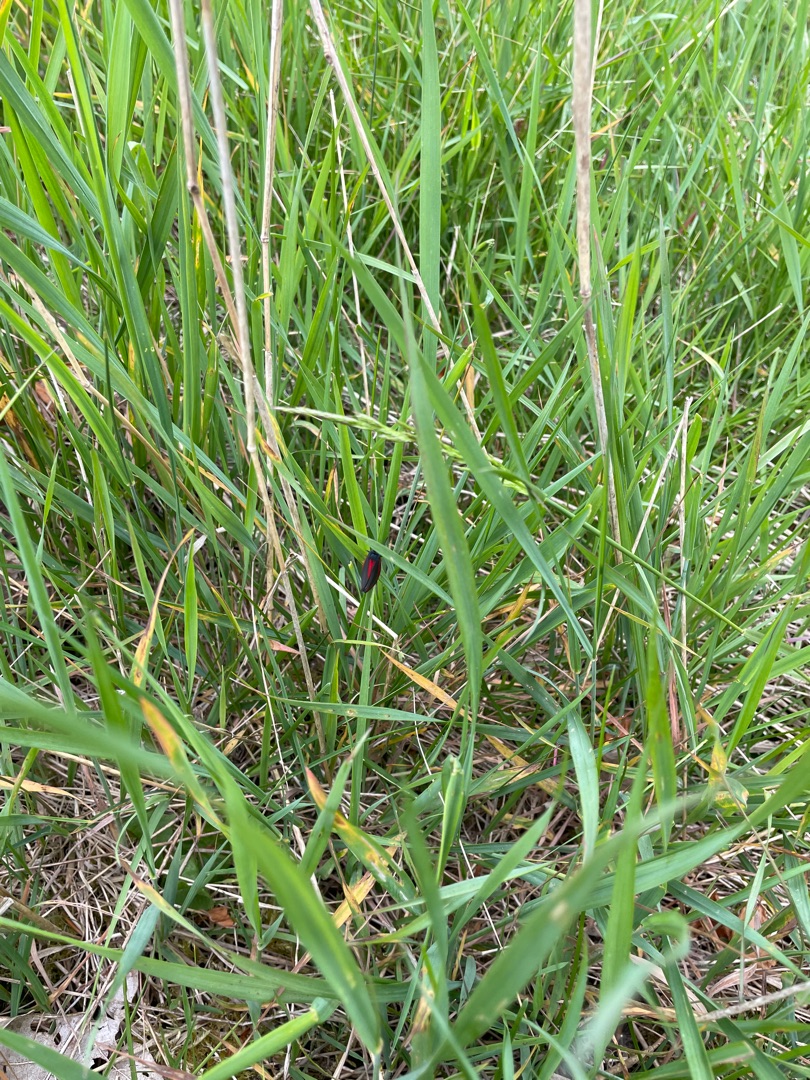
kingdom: Animalia
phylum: Arthropoda
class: Insecta
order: Lepidoptera
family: Erebidae
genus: Tyria
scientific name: Tyria jacobaeae
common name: Blodplet
